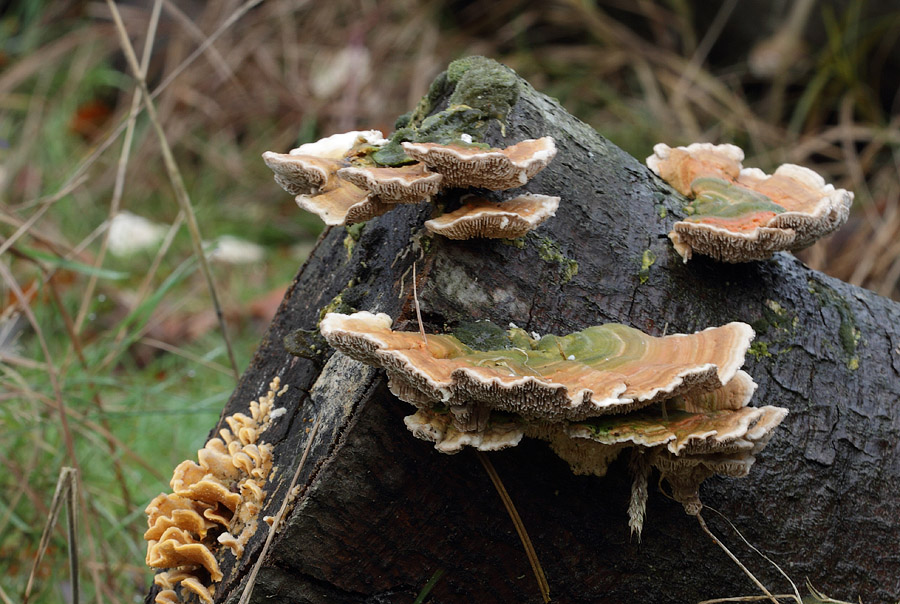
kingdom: Fungi
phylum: Basidiomycota
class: Agaricomycetes
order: Polyporales
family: Polyporaceae
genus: Lenzites
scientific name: Lenzites betulinus
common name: birke-læderporesvamp
